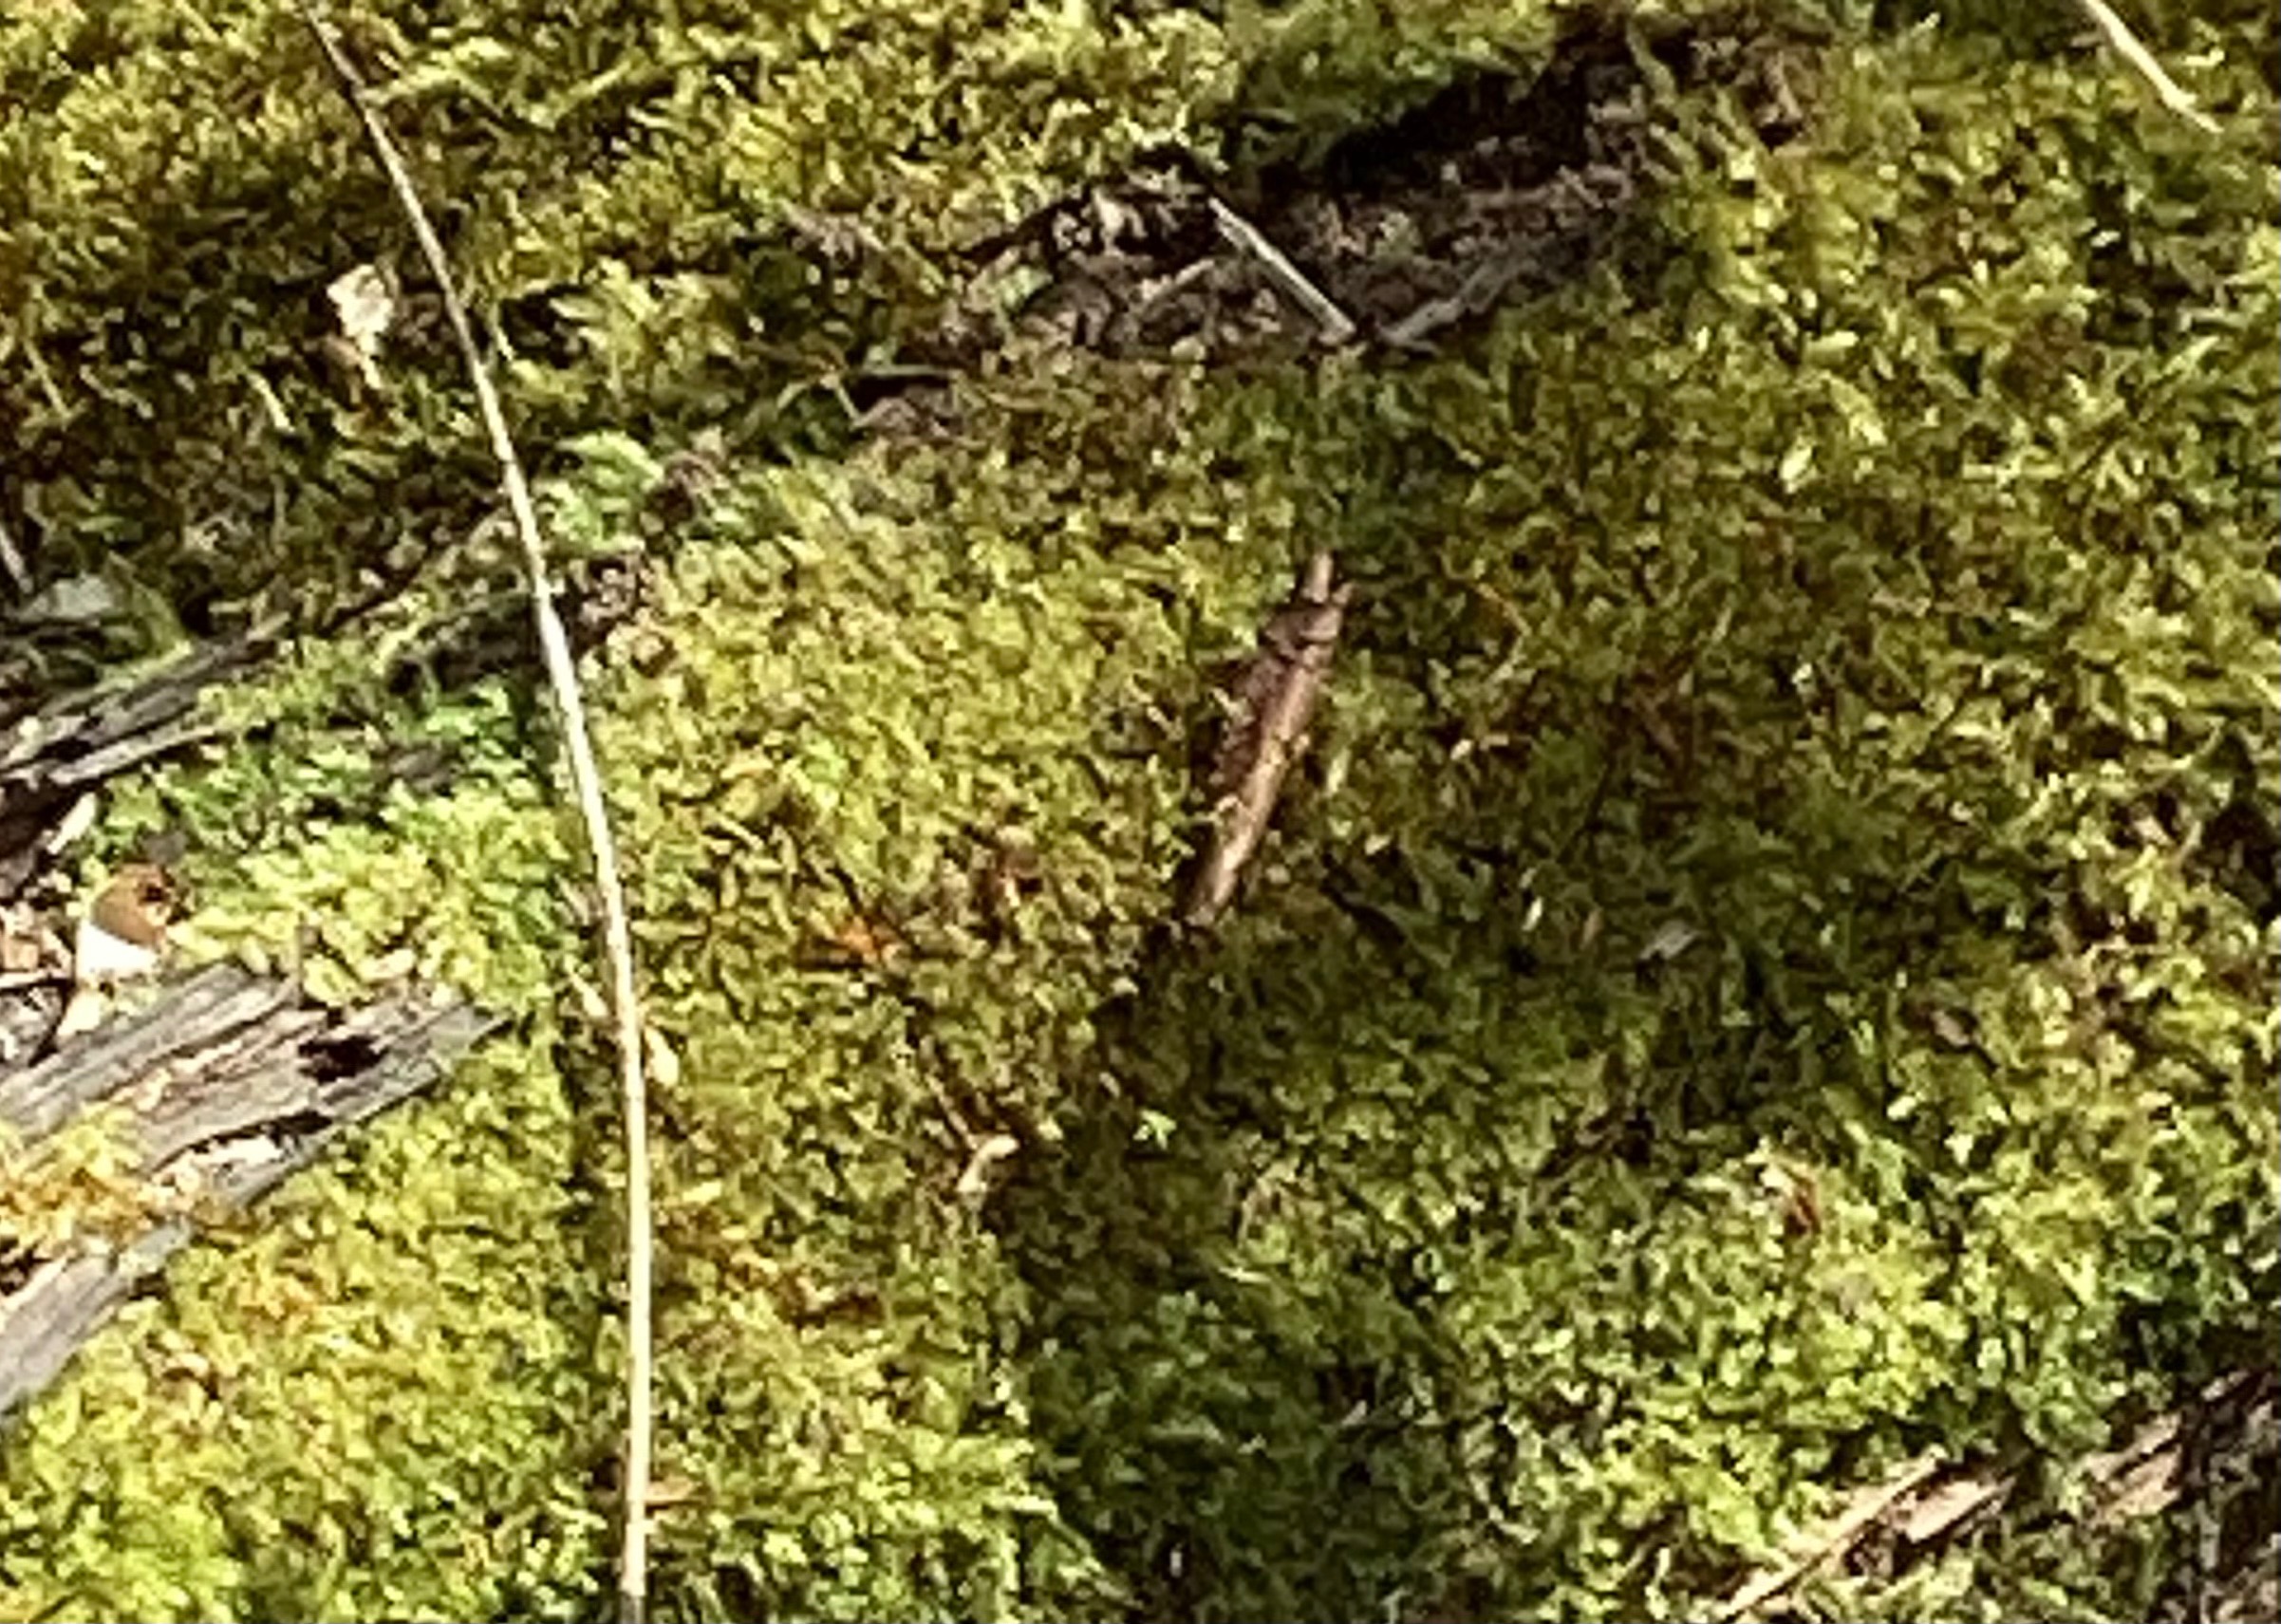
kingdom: Plantae
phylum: Bryophyta
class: Bryopsida
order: Hypnales
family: Brachytheciaceae
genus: Kindbergia
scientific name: Kindbergia praelonga
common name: Forskelligbladet vortetand
